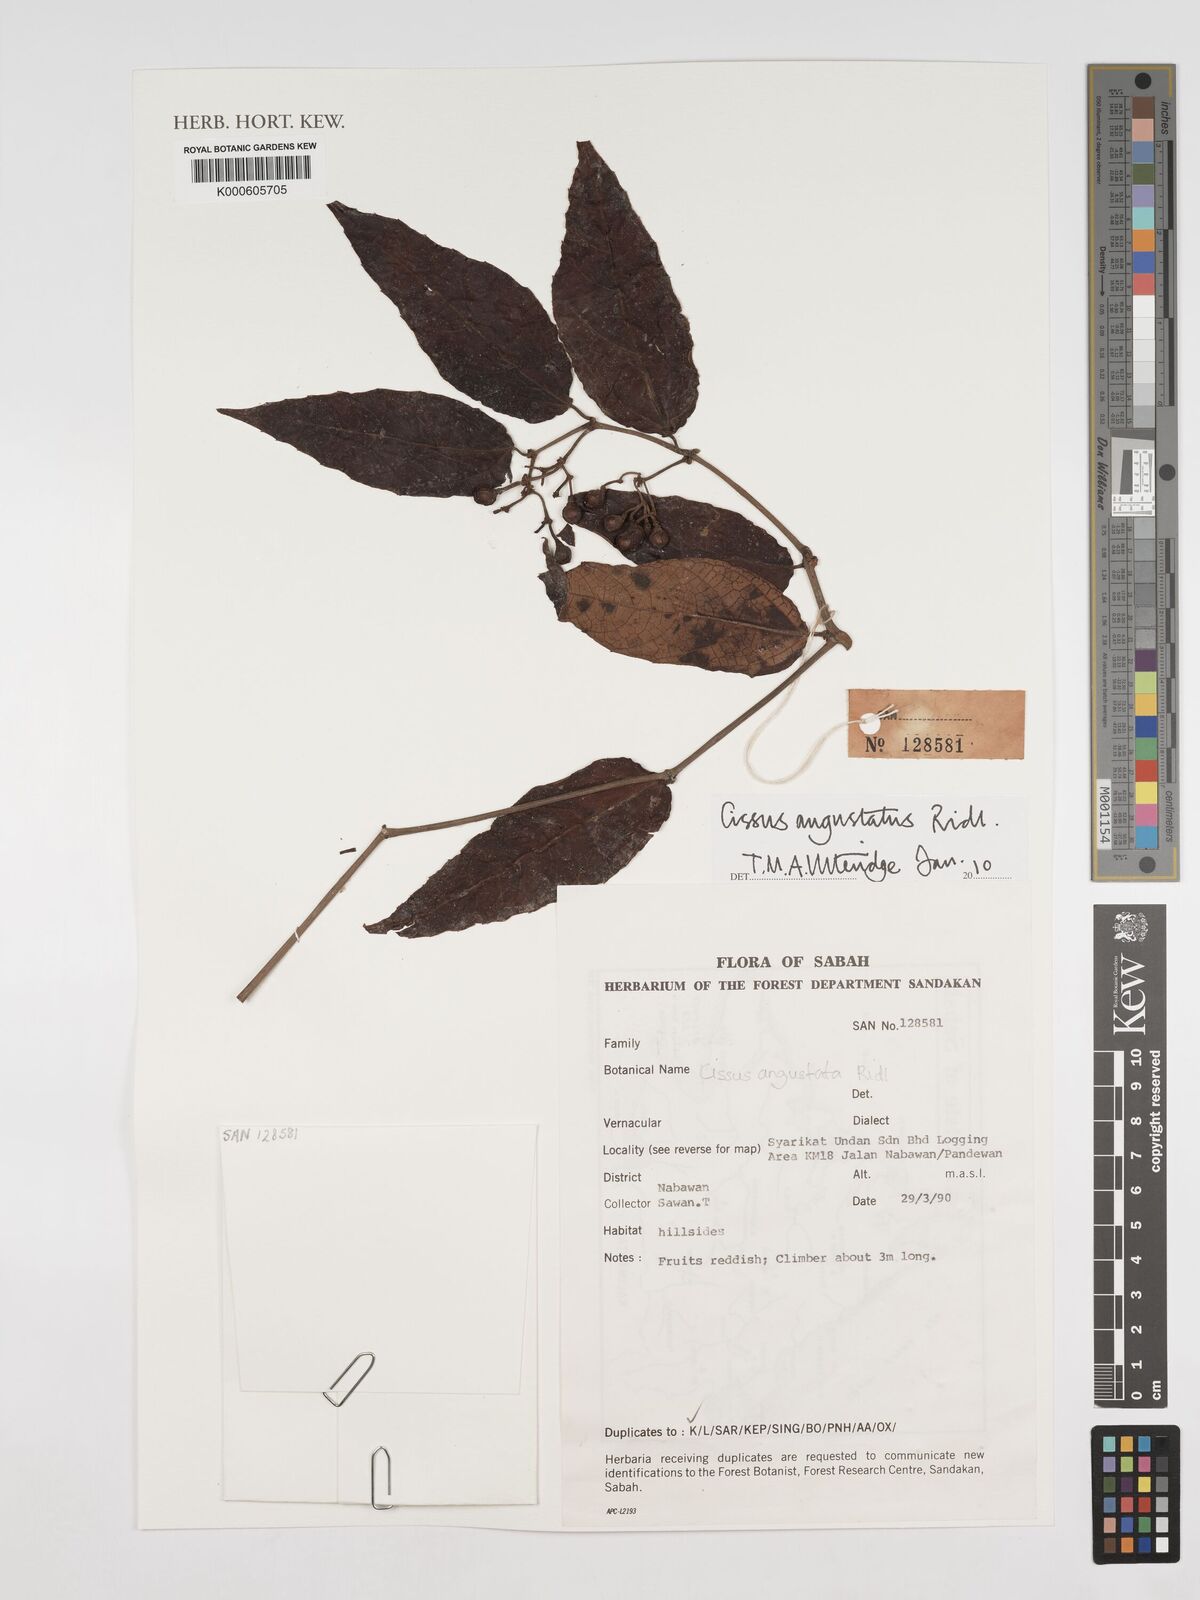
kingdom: Plantae
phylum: Tracheophyta
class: Magnoliopsida
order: Vitales
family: Vitaceae
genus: Cissus
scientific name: Cissus angustata
